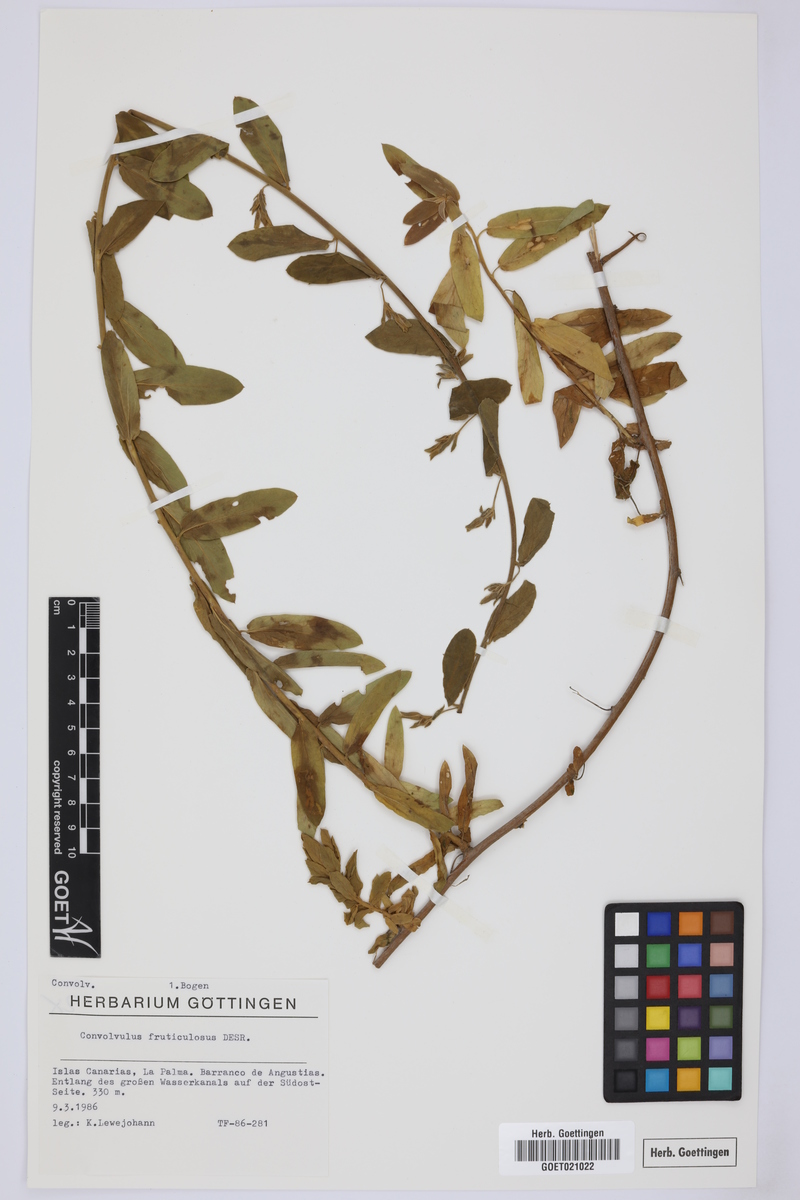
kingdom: Plantae
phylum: Tracheophyta
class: Magnoliopsida
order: Solanales
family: Convolvulaceae
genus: Convolvulus
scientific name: Convolvulus fruticulosus
